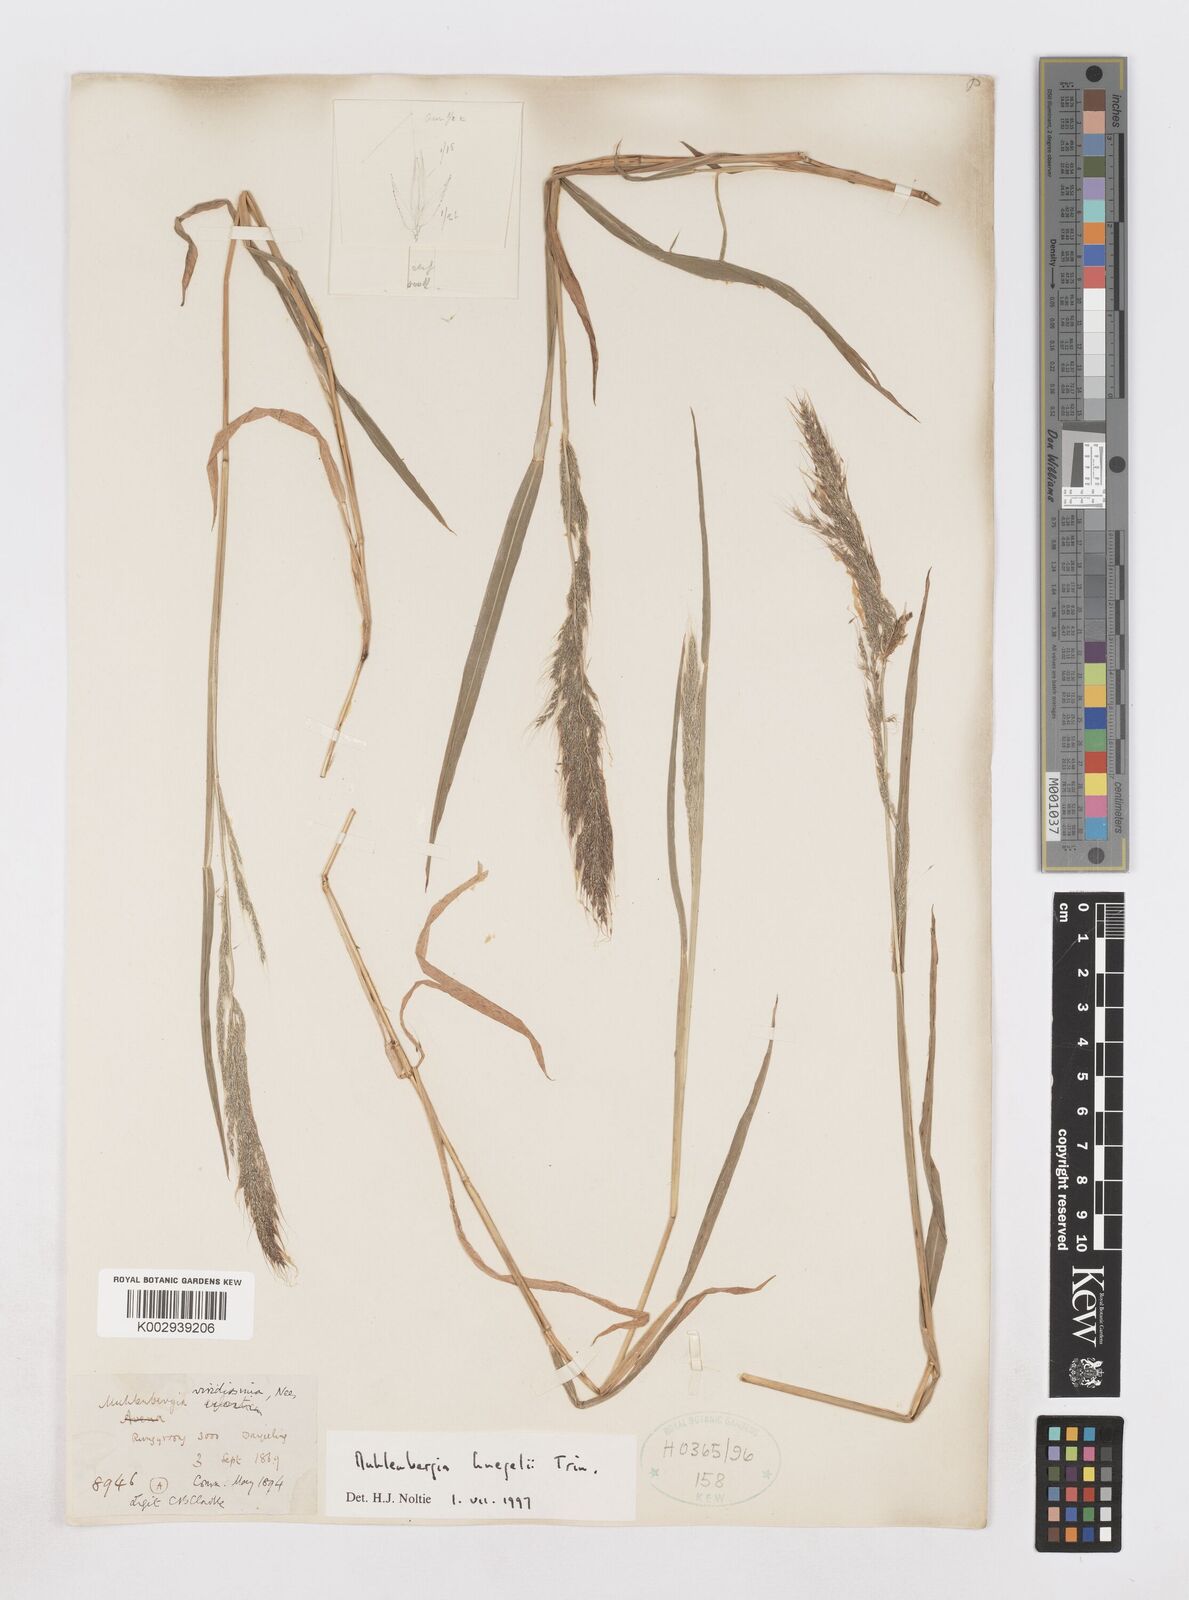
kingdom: Plantae
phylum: Tracheophyta
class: Liliopsida
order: Poales
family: Poaceae
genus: Muhlenbergia
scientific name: Muhlenbergia huegelii
